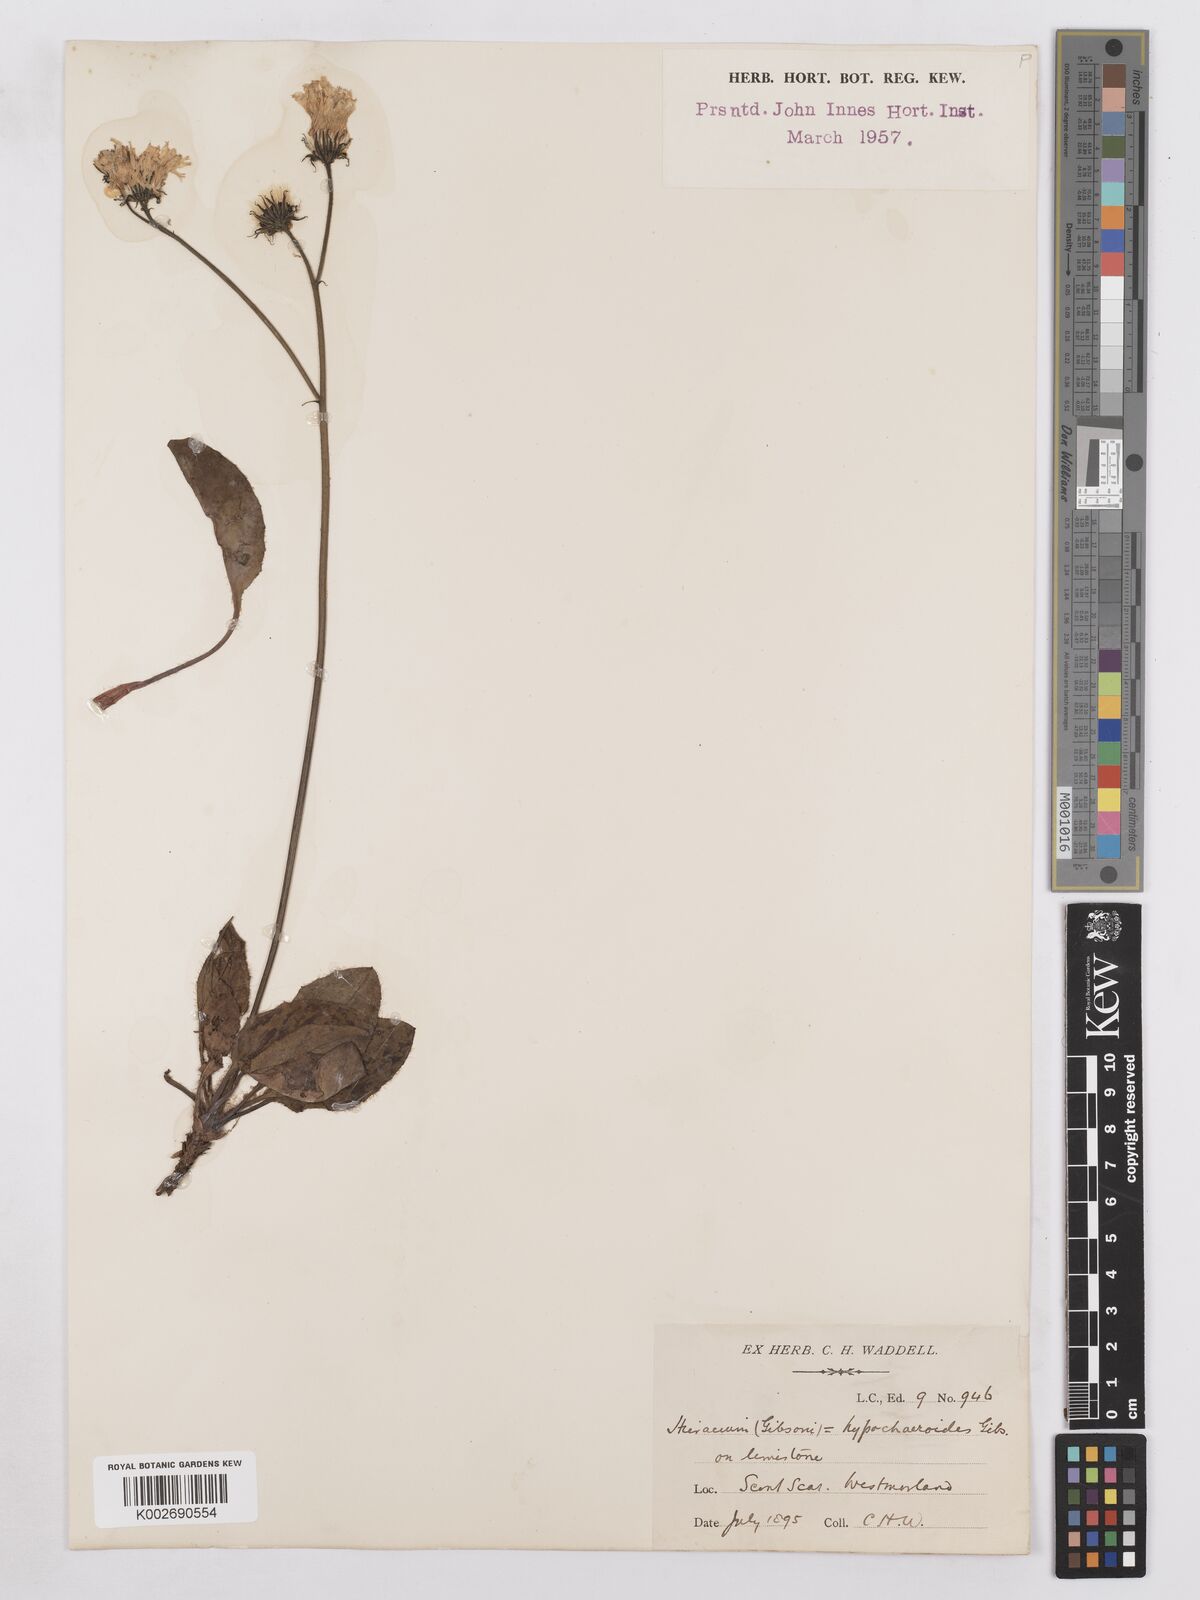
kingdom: Plantae
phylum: Tracheophyta
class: Magnoliopsida
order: Asterales
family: Asteraceae
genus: Hieracium
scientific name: Hieracium hypochoeroides
